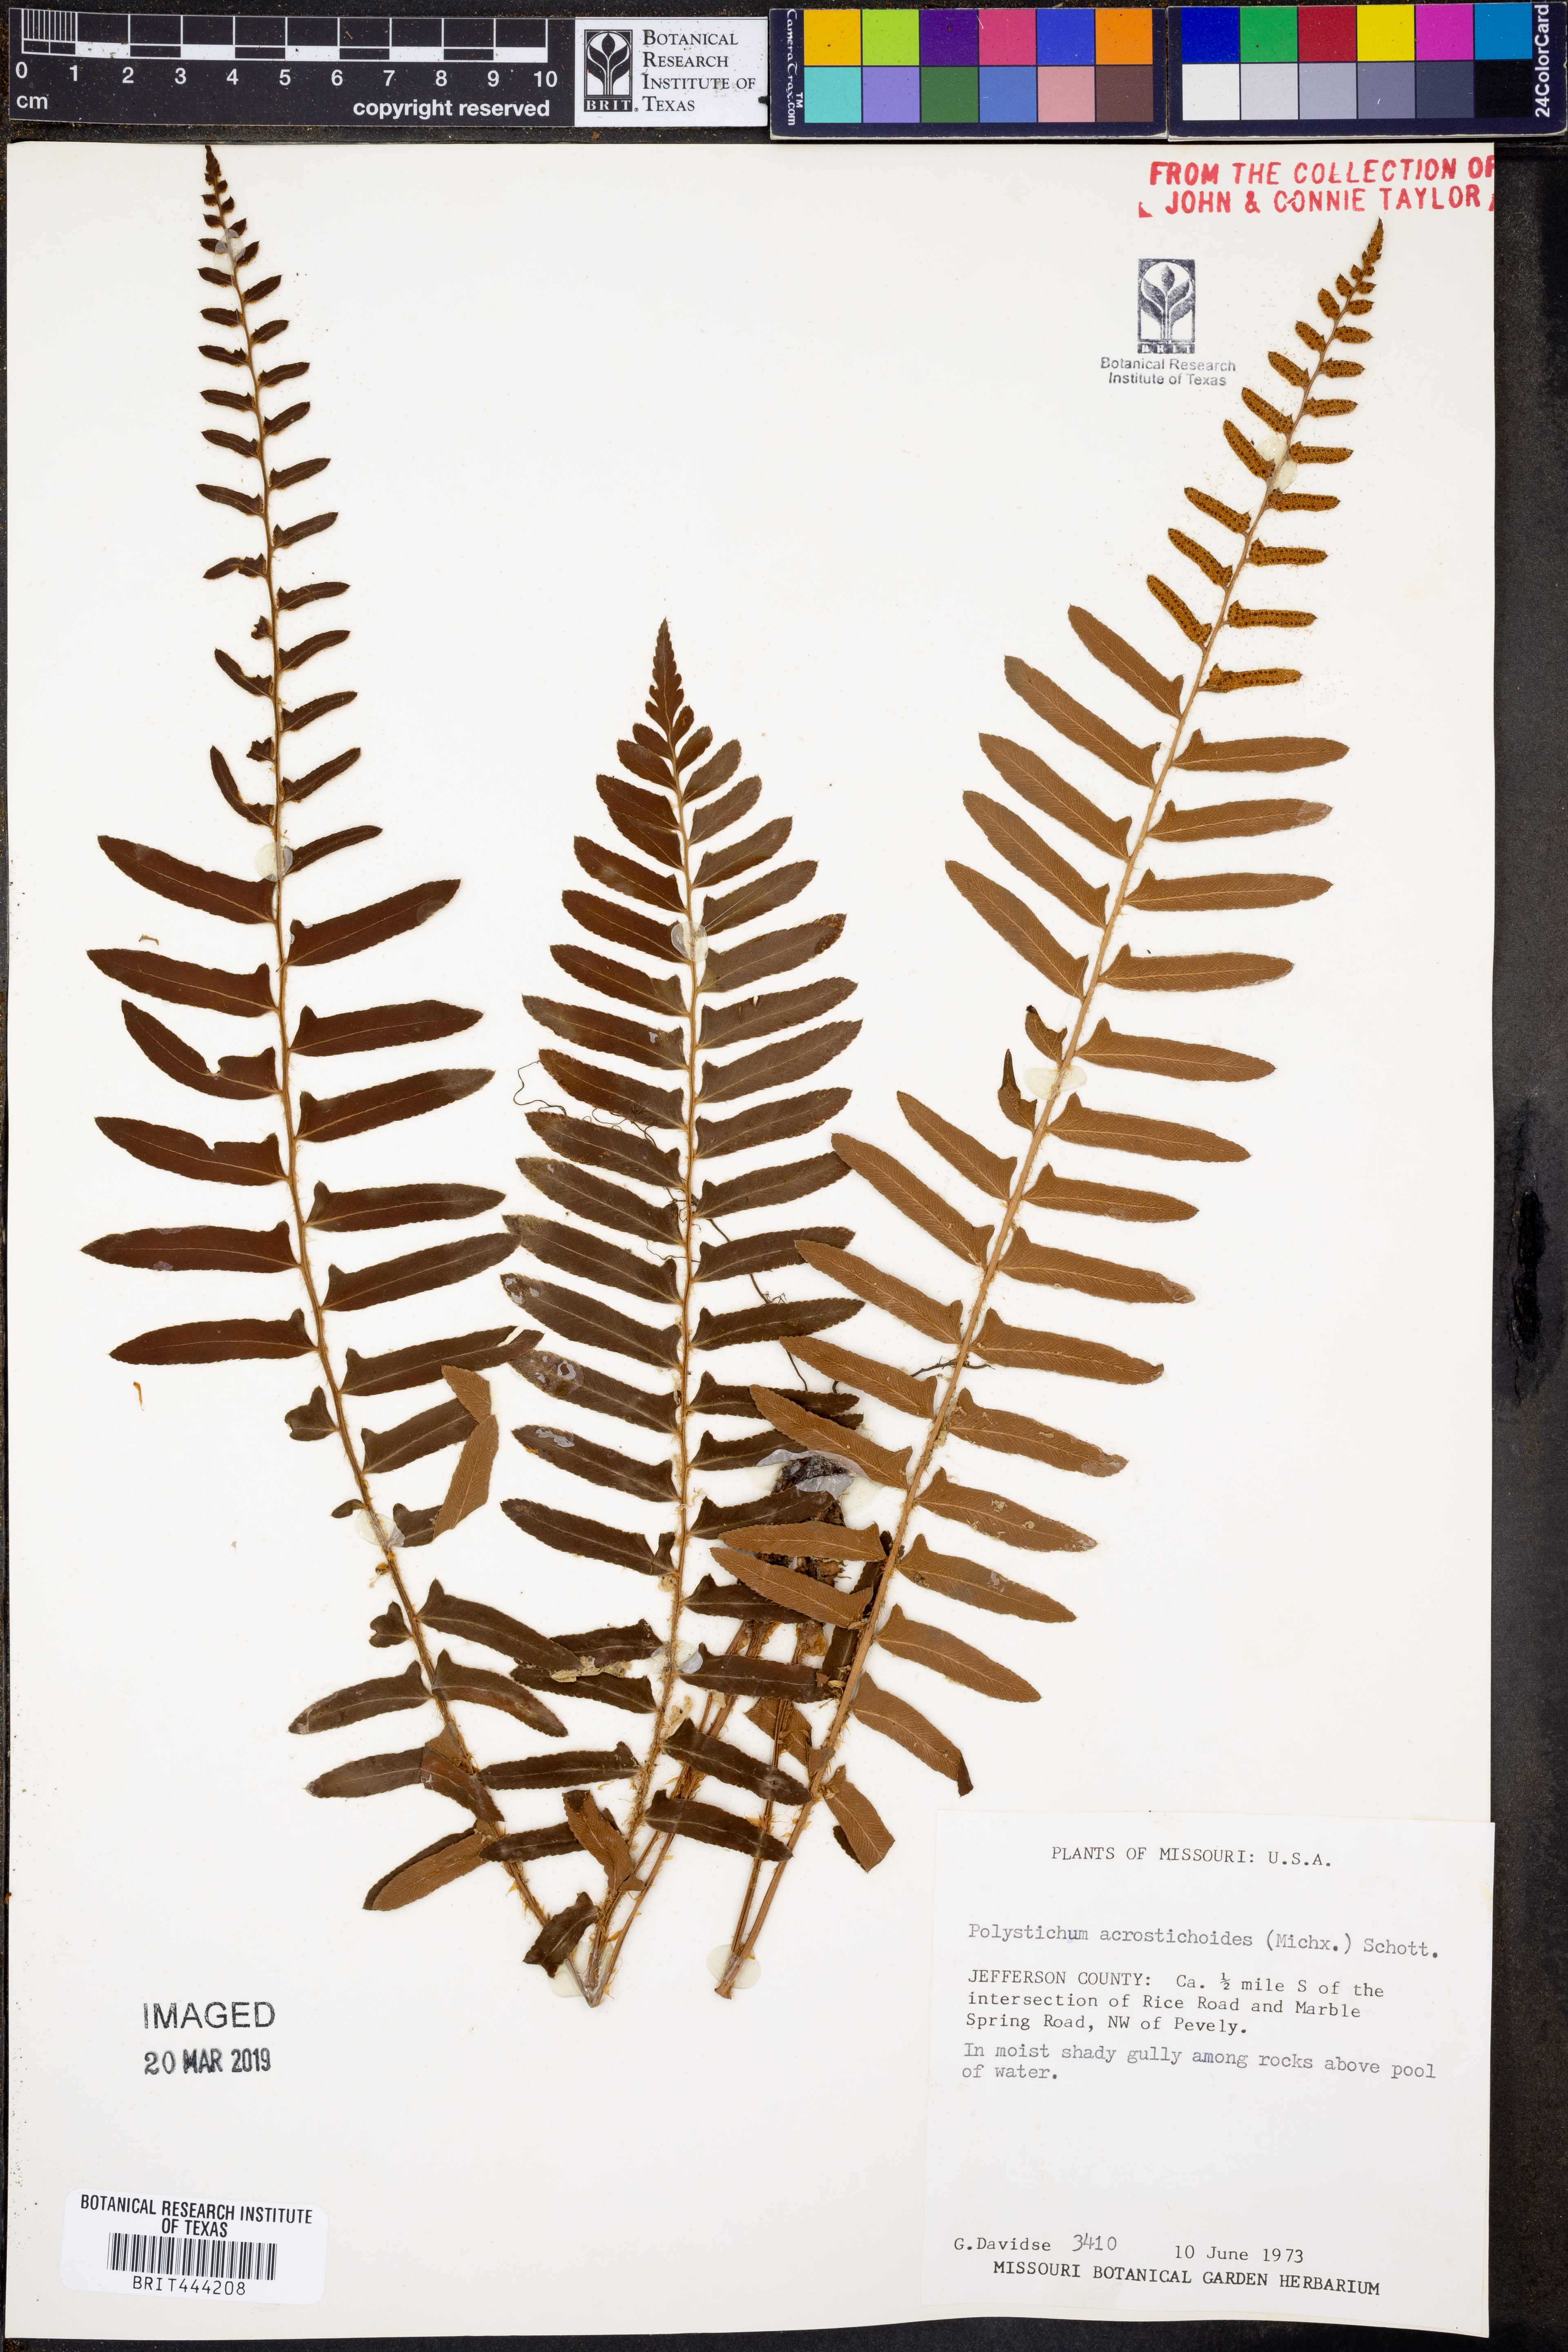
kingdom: Plantae
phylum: Tracheophyta
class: Polypodiopsida
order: Polypodiales
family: Dryopteridaceae
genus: Polystichum
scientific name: Polystichum acrostichoides
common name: Christmas fern
